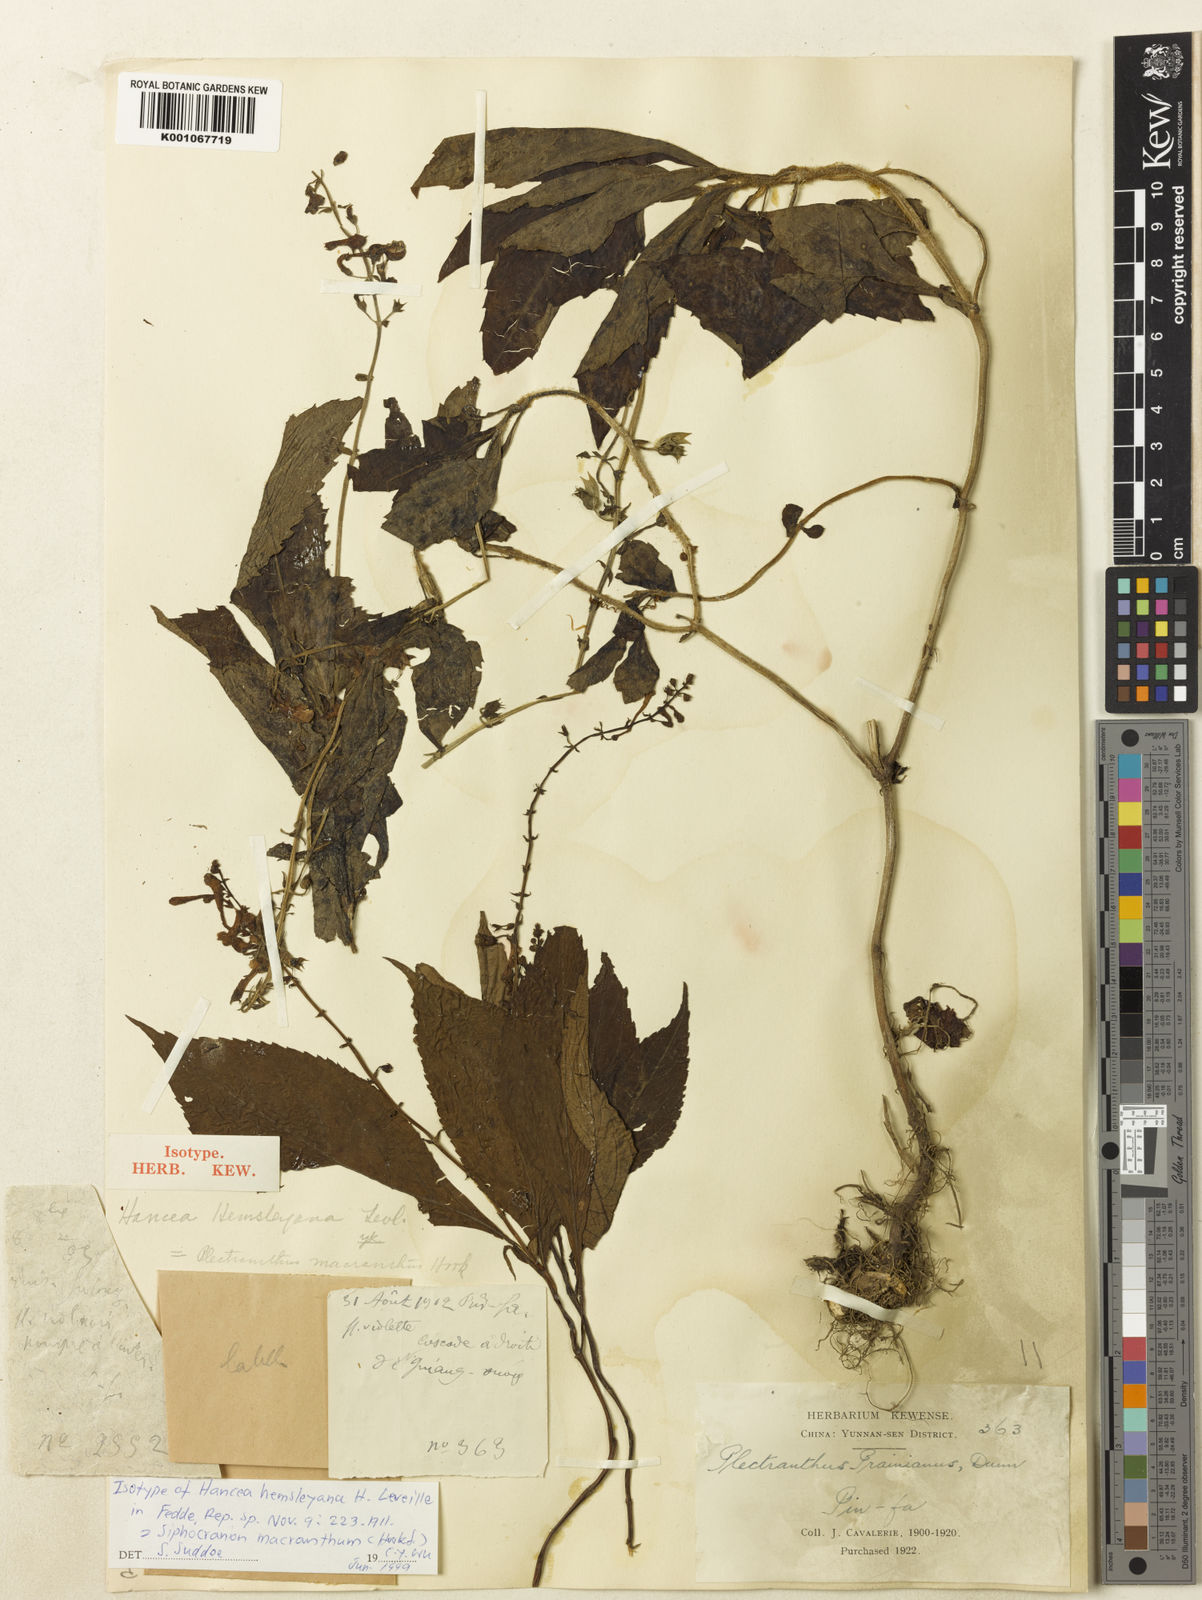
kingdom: Plantae
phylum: Tracheophyta
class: Magnoliopsida
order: Lamiales
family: Lamiaceae
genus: Siphocranion
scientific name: Siphocranion macranthum
